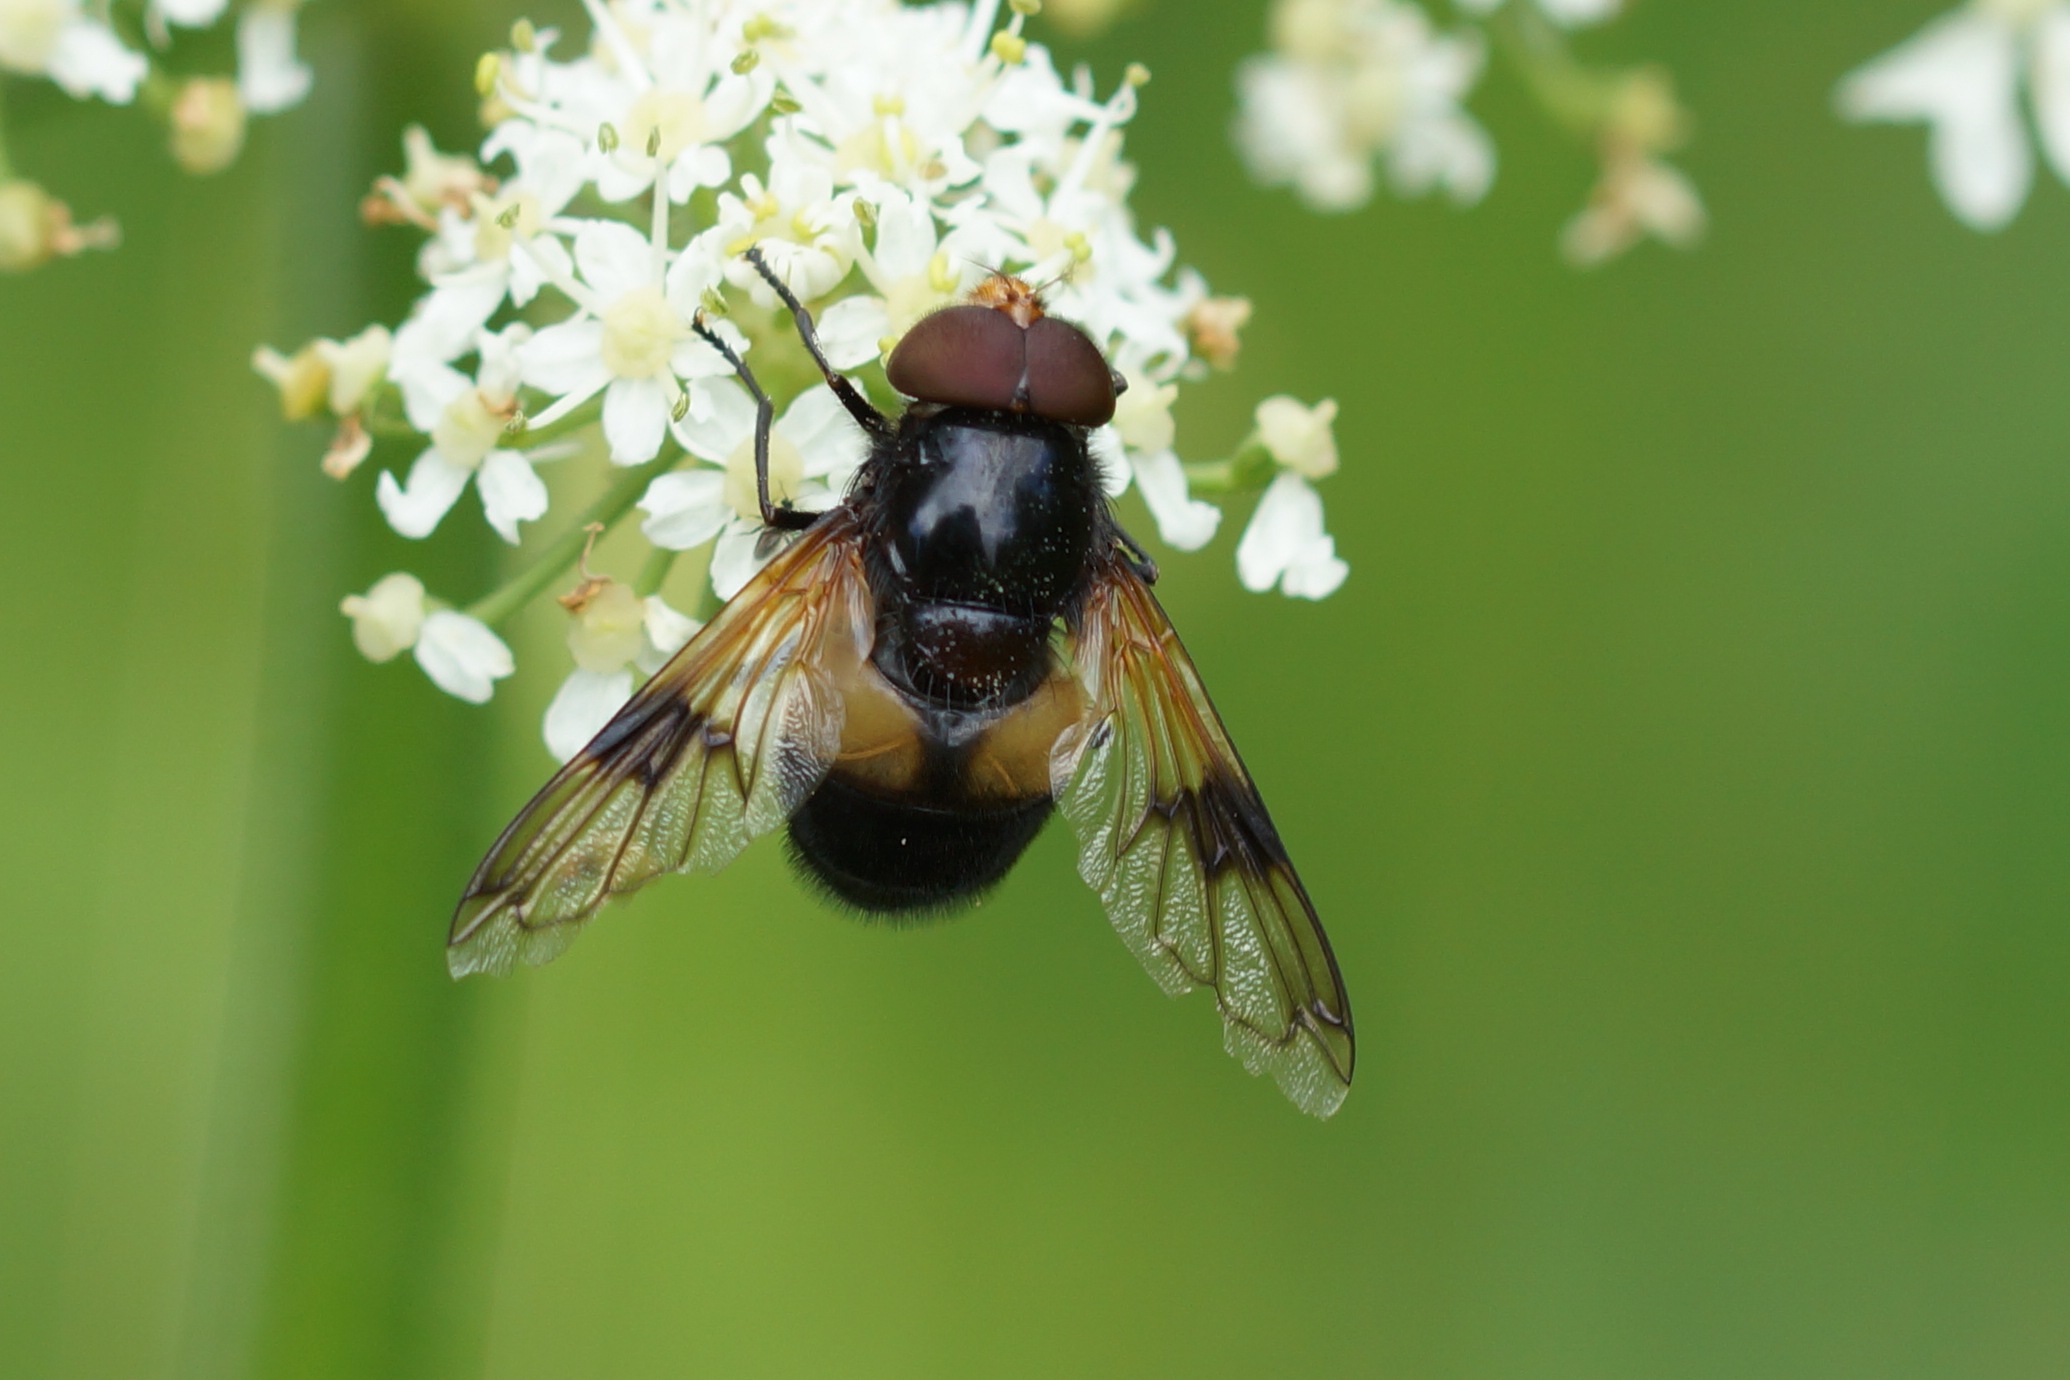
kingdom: Animalia
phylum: Arthropoda
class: Insecta
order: Diptera
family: Syrphidae
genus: Volucella
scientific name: Volucella pellucens
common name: Hvidbåndet humlesvirreflue
